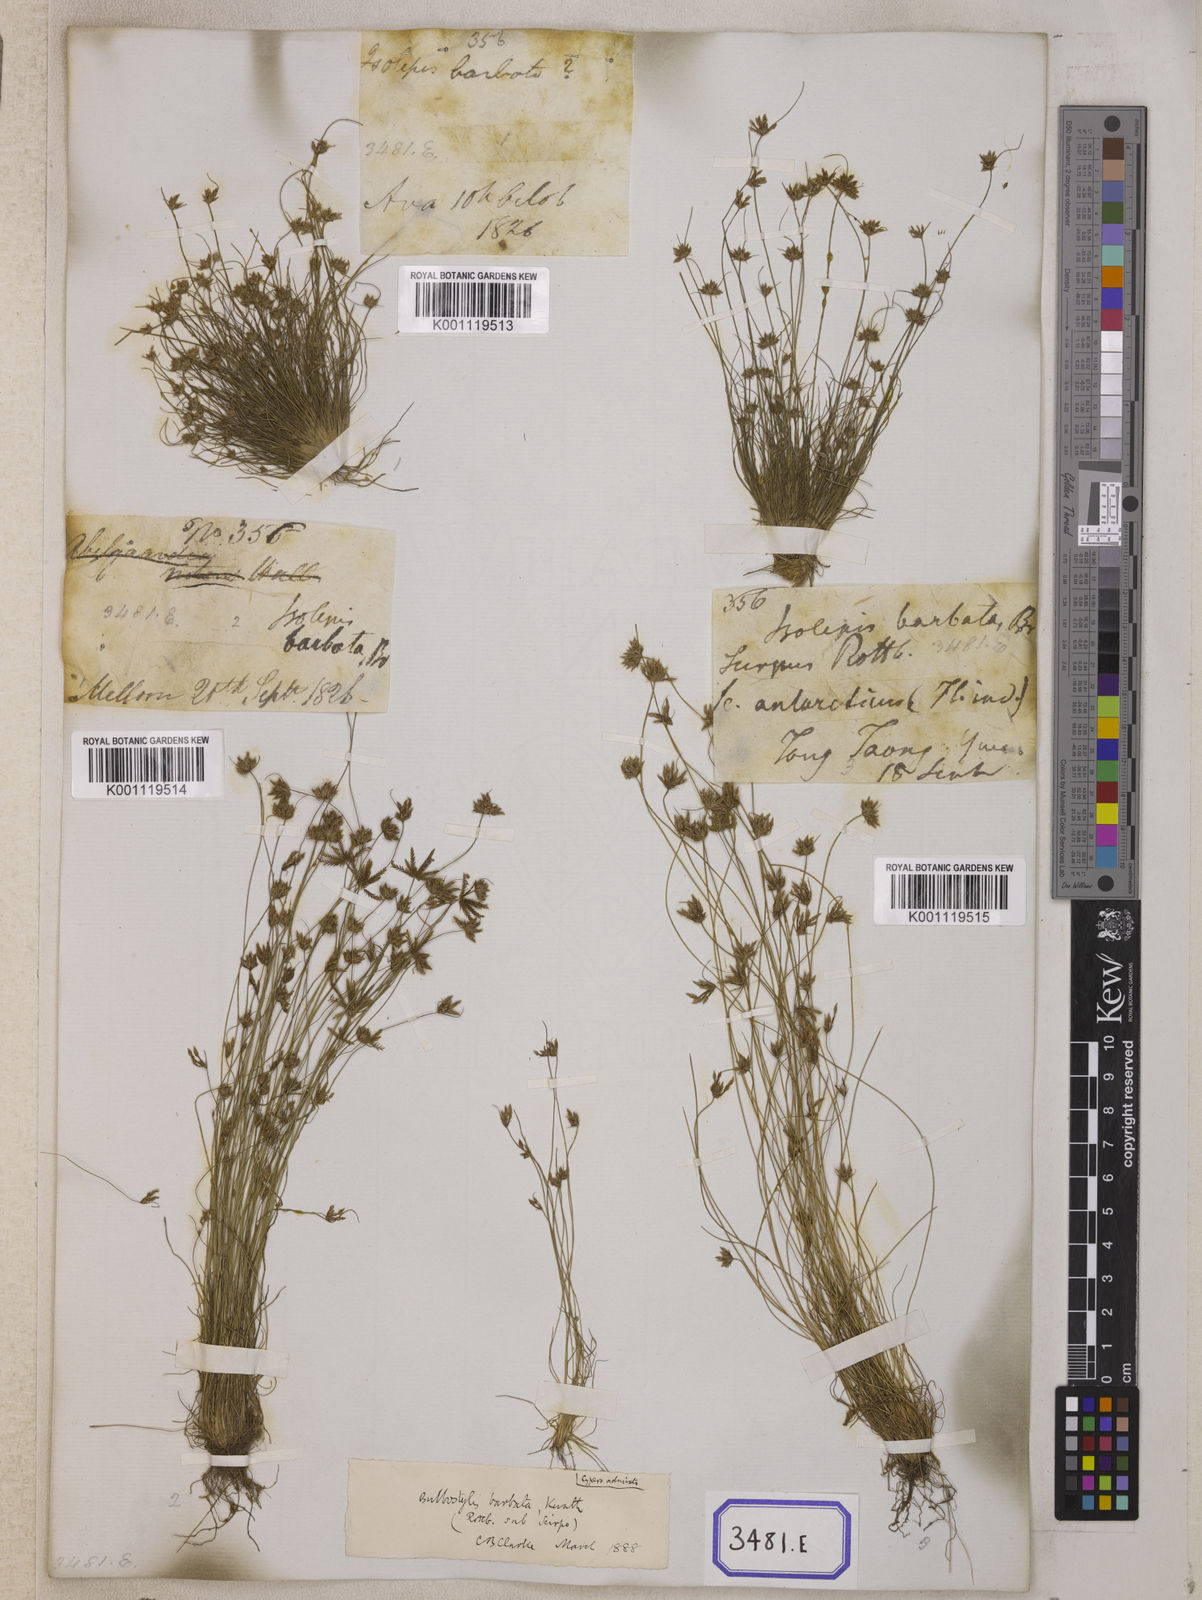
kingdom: Plantae
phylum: Tracheophyta
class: Liliopsida
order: Poales
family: Cyperaceae
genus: Isolepis
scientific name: Isolepis
